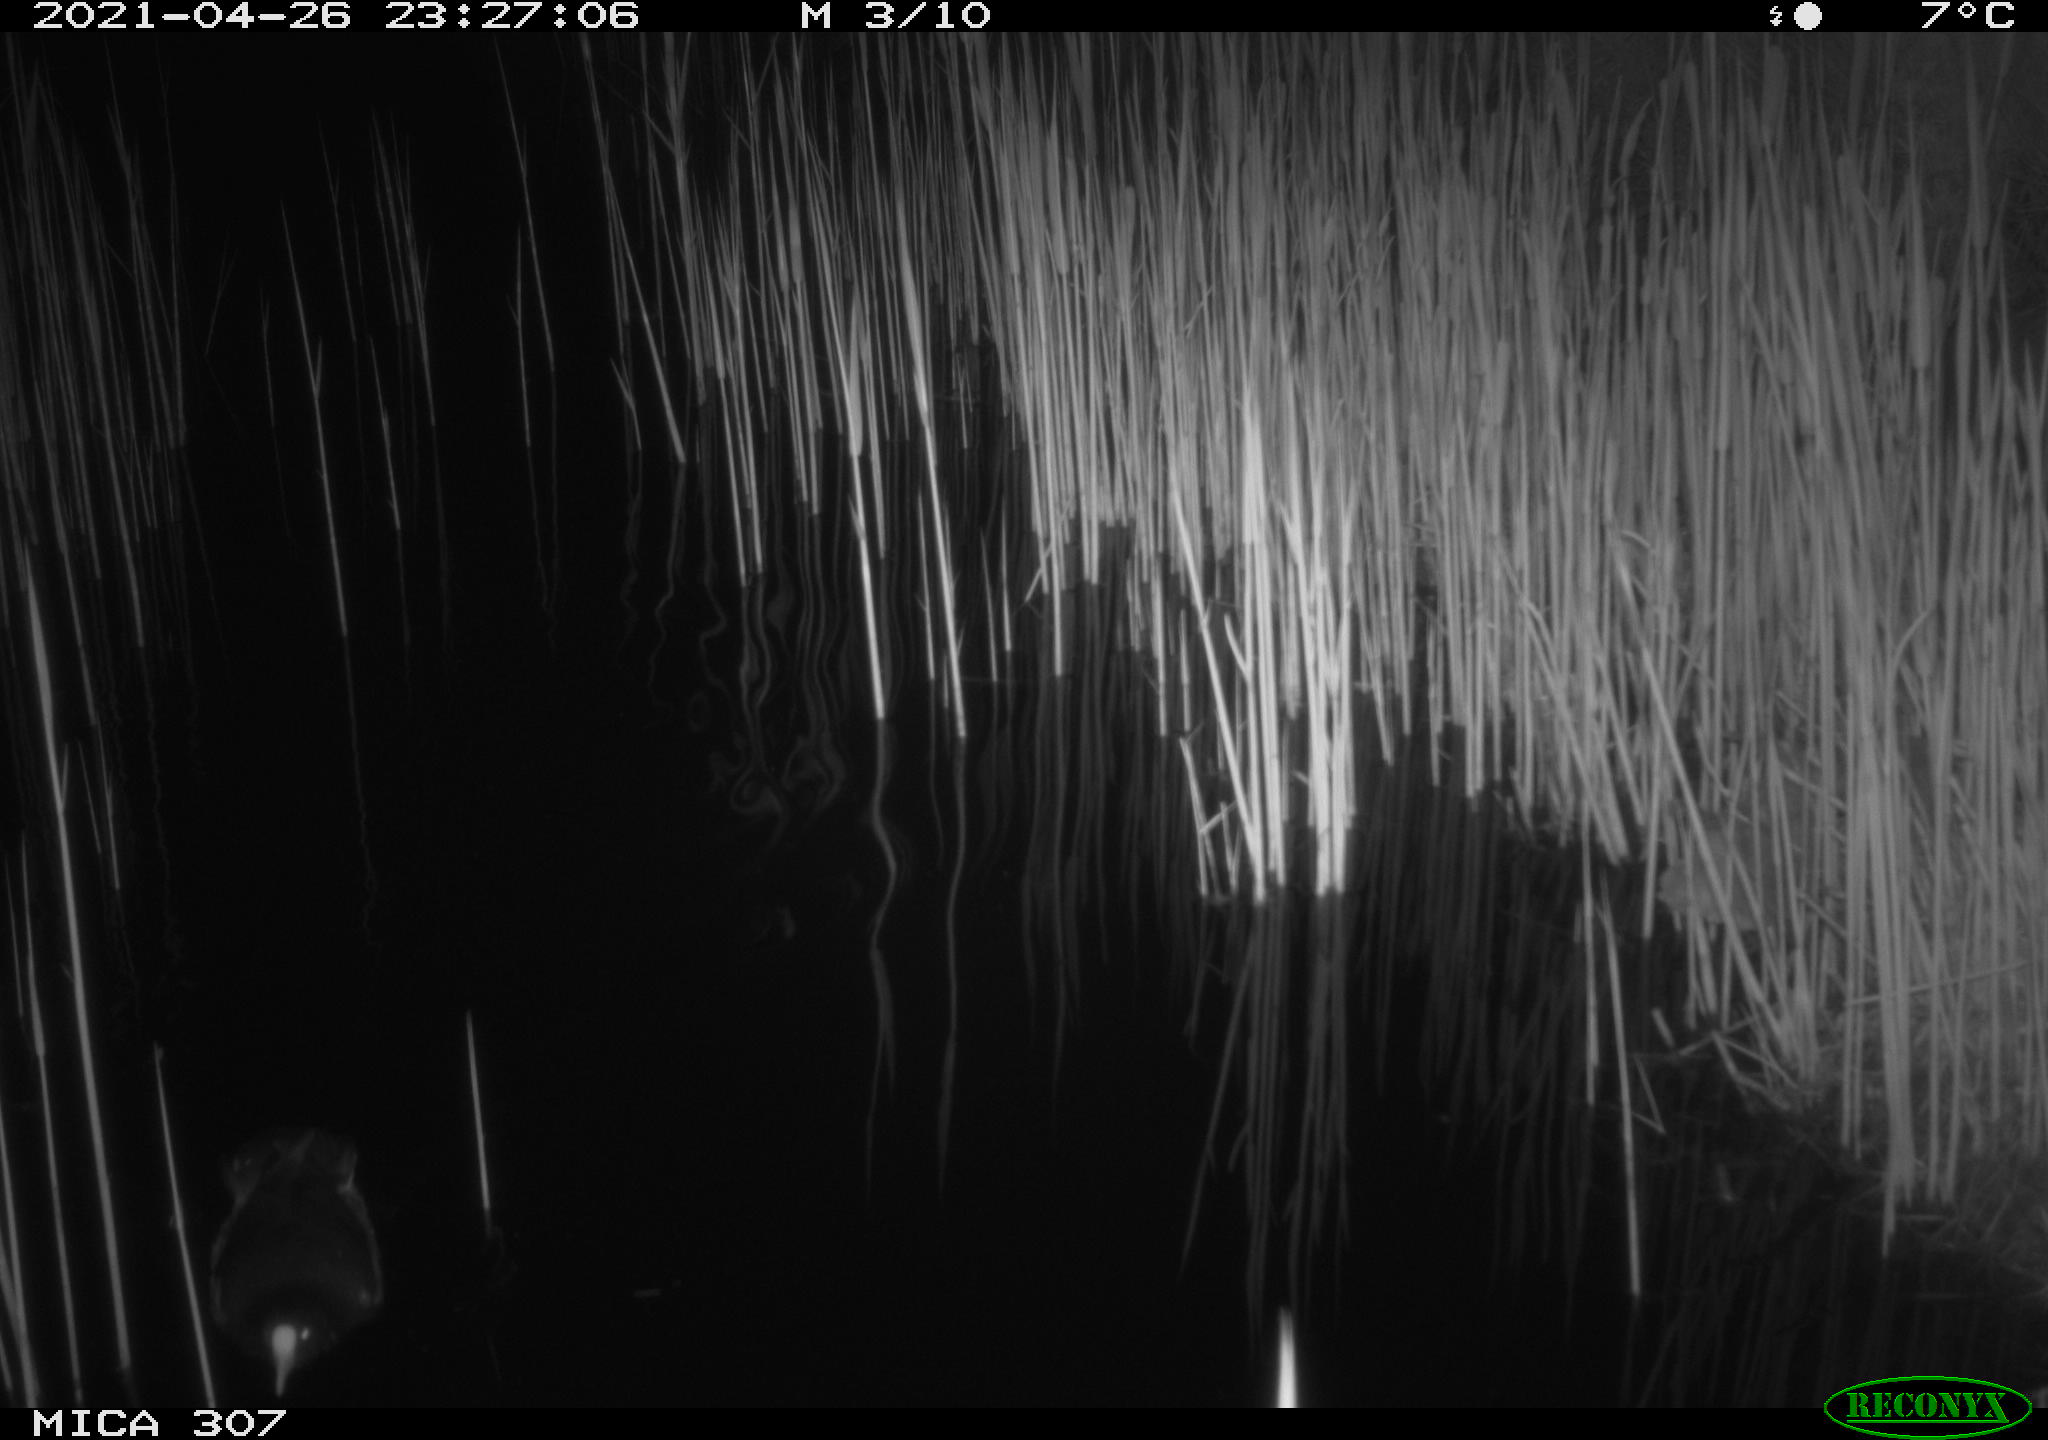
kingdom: Animalia
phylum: Chordata
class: Aves
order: Gruiformes
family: Rallidae
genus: Gallinula
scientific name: Gallinula chloropus
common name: Common moorhen
